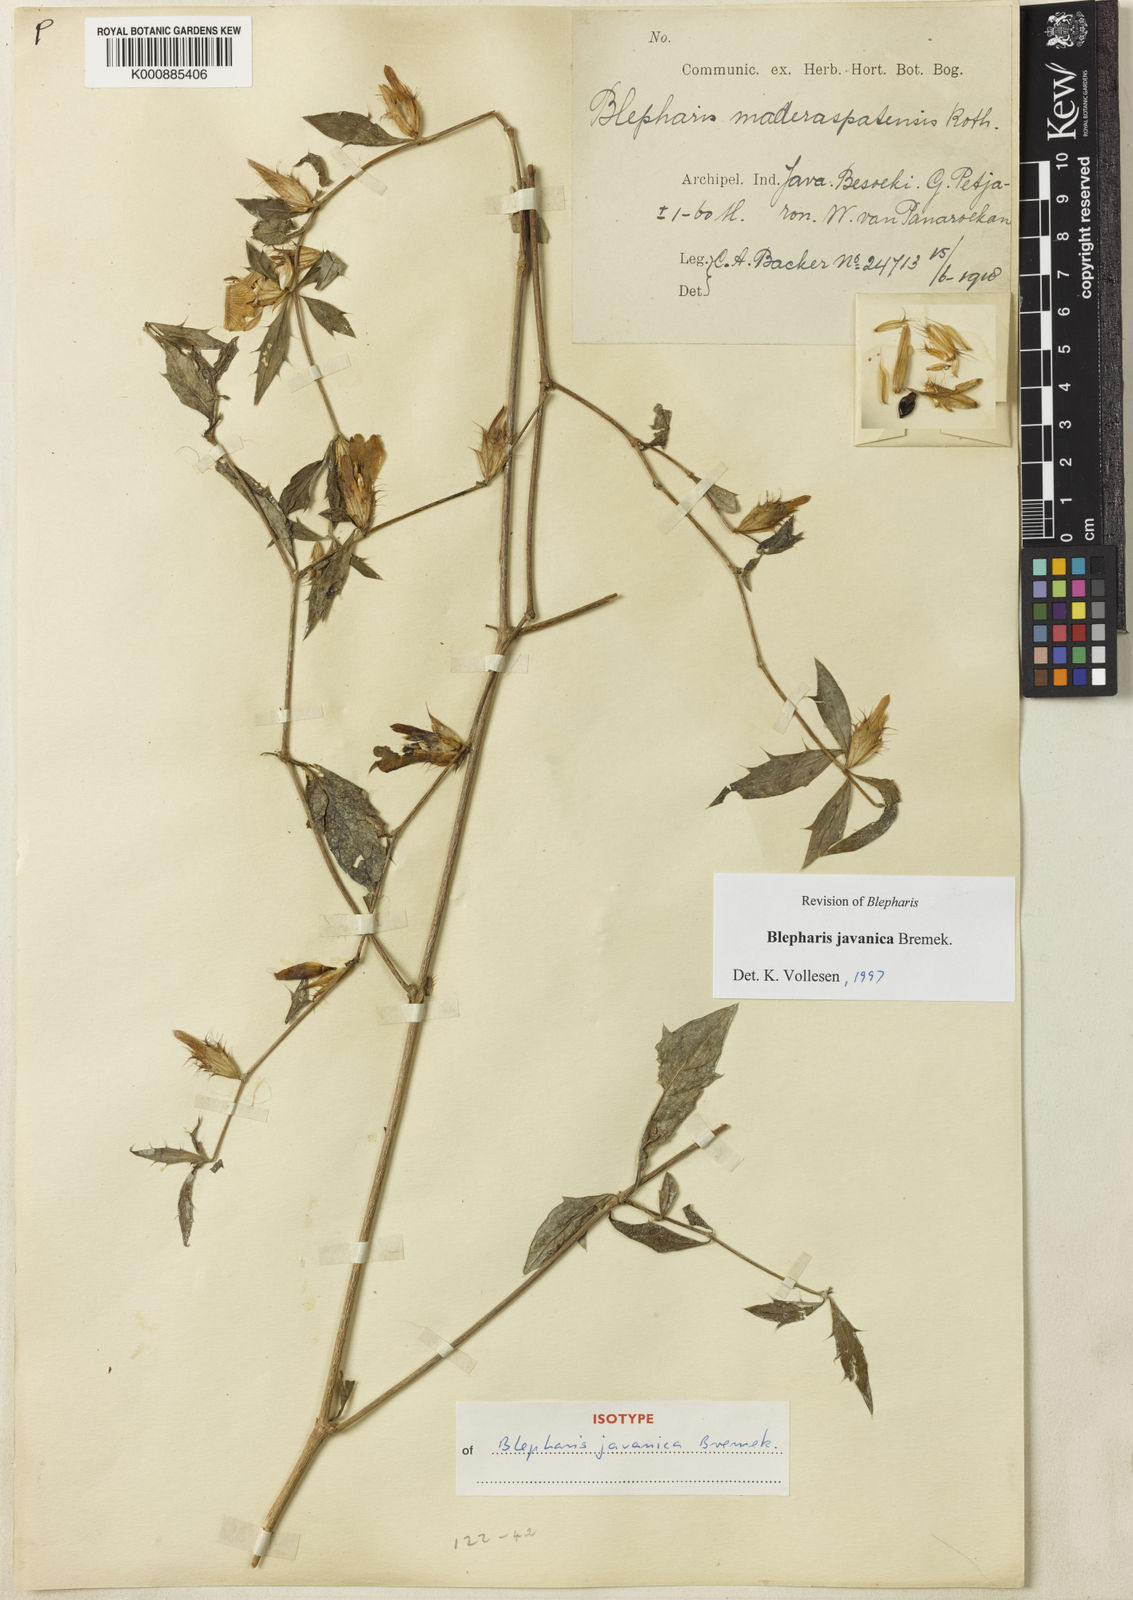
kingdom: Plantae
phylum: Tracheophyta
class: Magnoliopsida
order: Lamiales
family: Acanthaceae
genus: Blepharis
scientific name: Blepharis javanica
